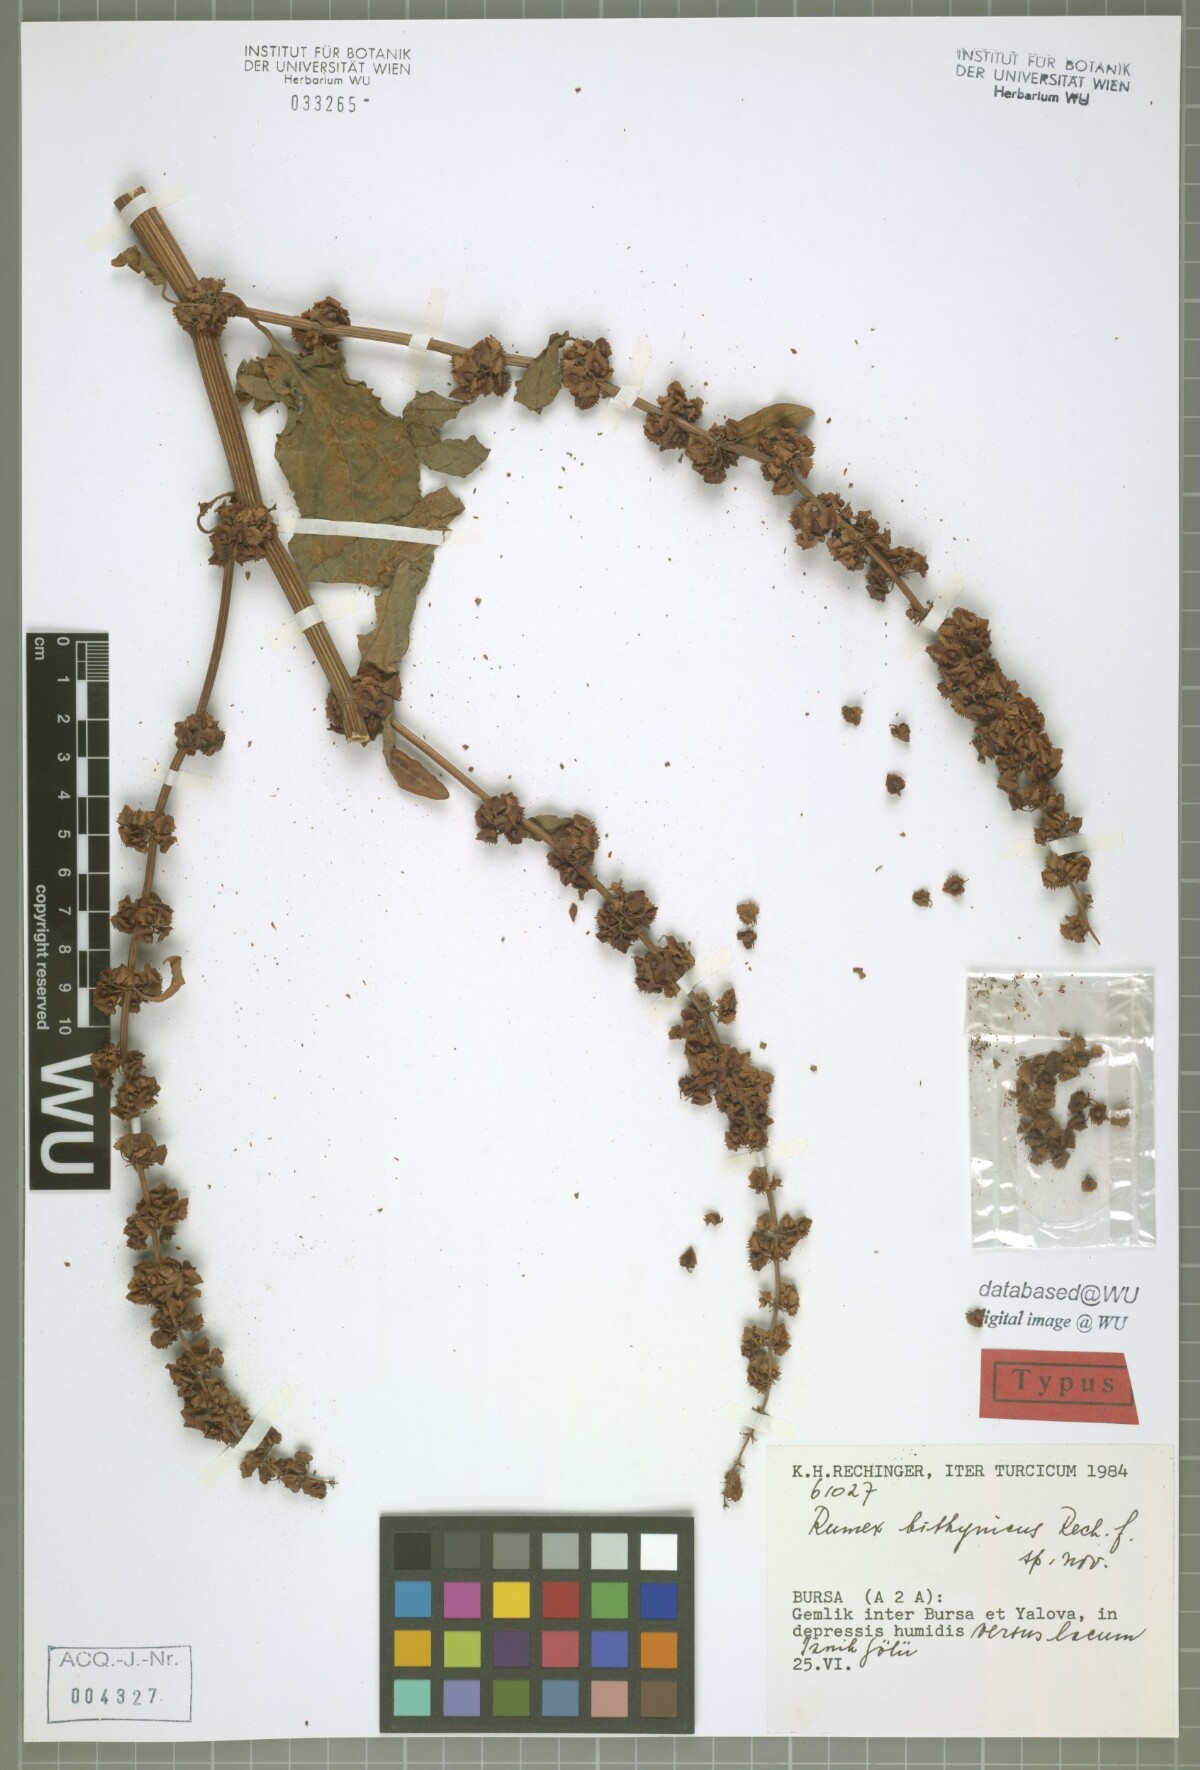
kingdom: Plantae
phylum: Tracheophyta
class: Magnoliopsida
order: Caryophyllales
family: Polygonaceae
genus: Rumex
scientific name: Rumex bithynicus
